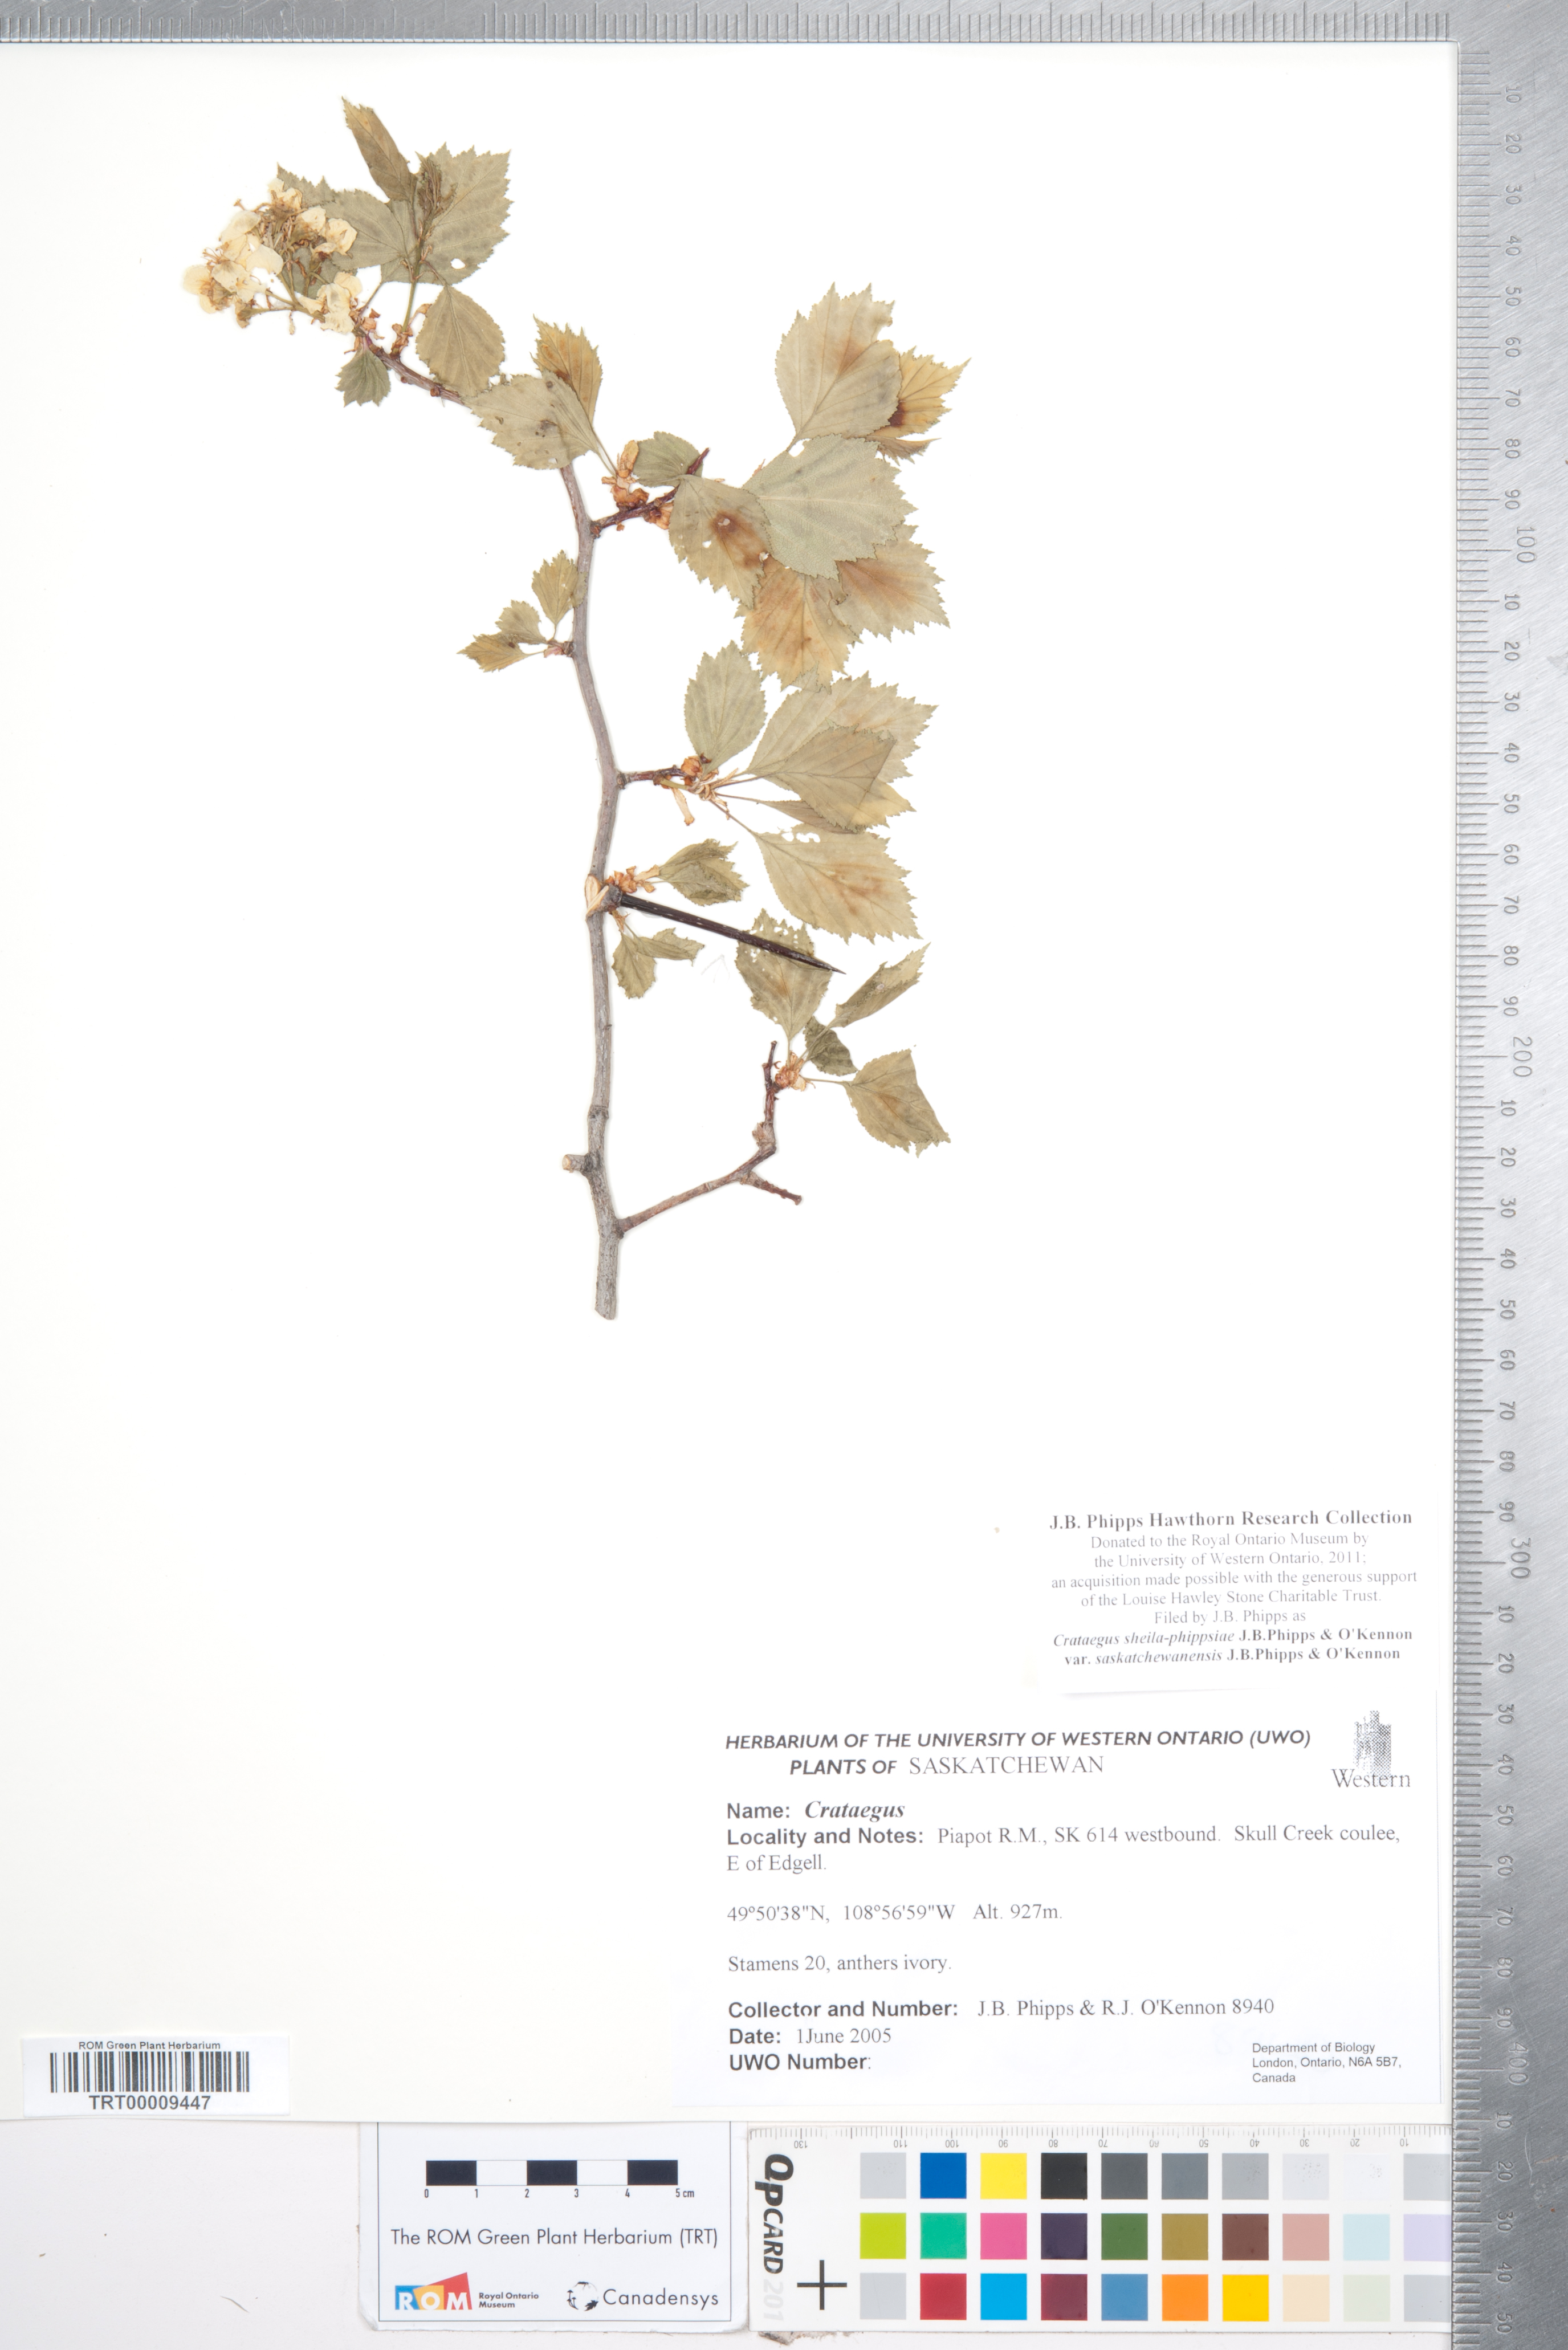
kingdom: Plantae
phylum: Tracheophyta
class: Magnoliopsida
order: Rosales
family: Rosaceae
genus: Crataegus
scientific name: Crataegus sheila-phippsiae
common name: Sheila phipps' hawthorn
